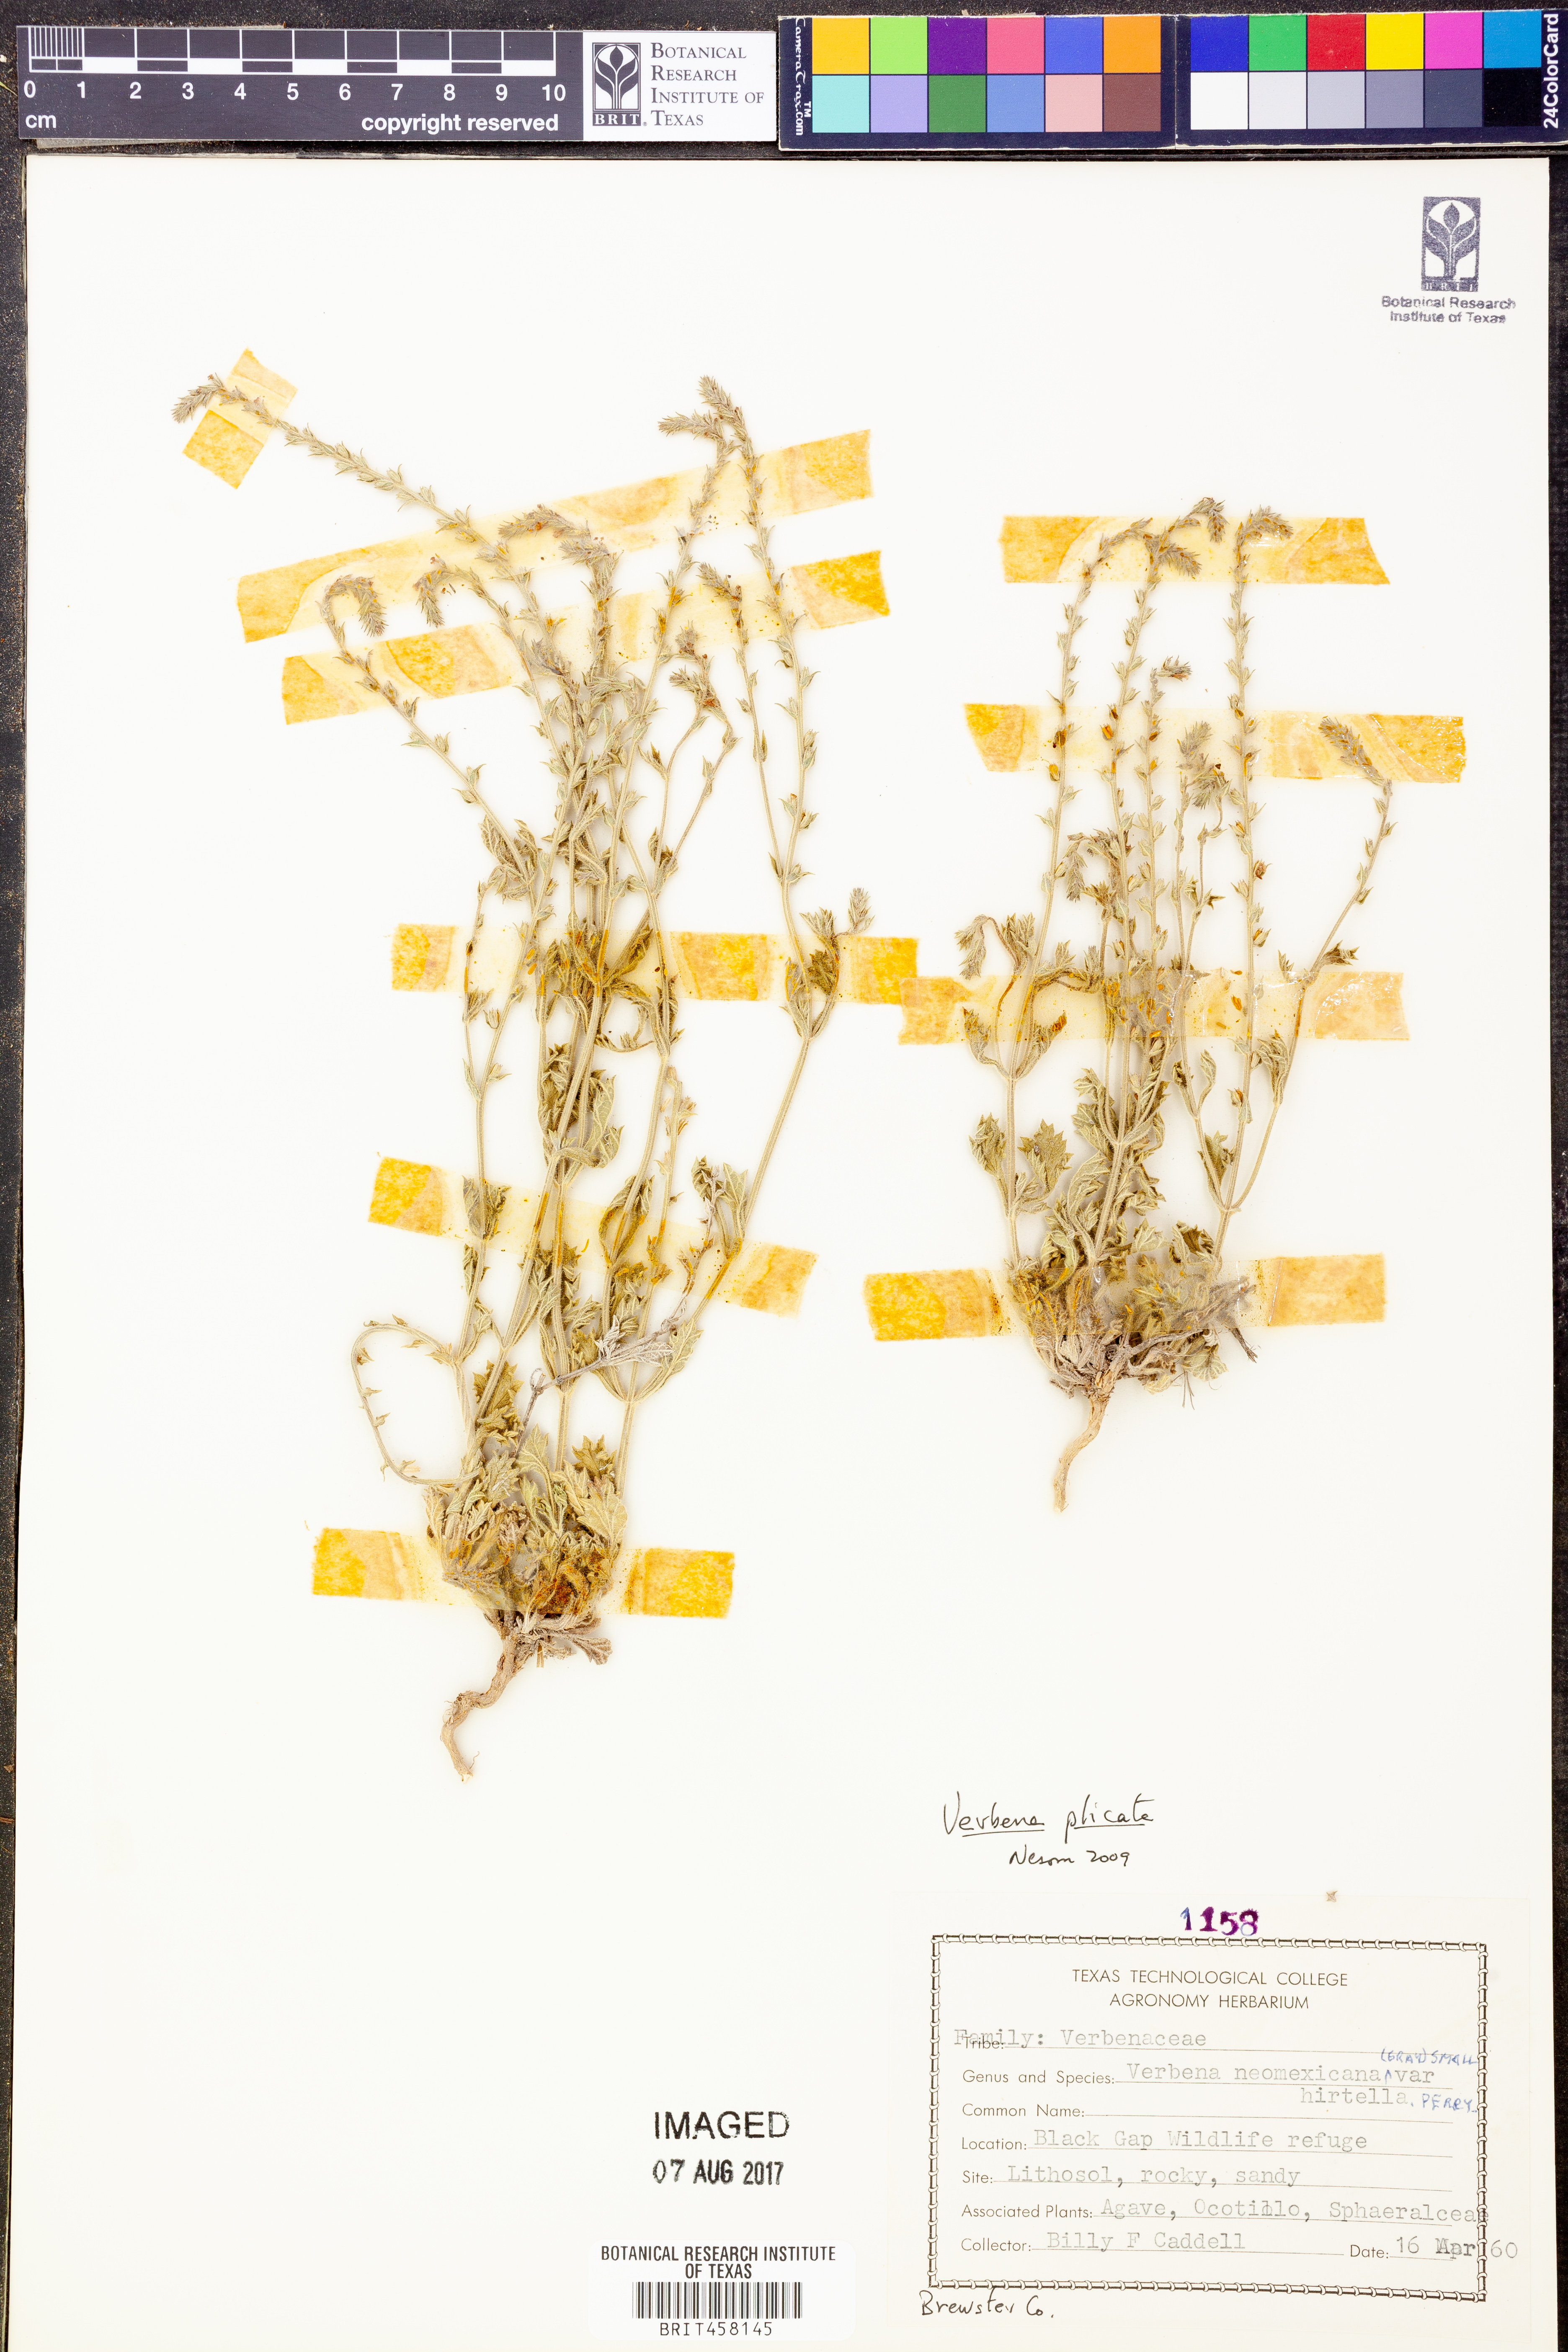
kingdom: Plantae
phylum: Tracheophyta
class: Magnoliopsida
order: Lamiales
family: Verbenaceae
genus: Verbena
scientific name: Verbena plicata
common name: Fan-leaf vervain
